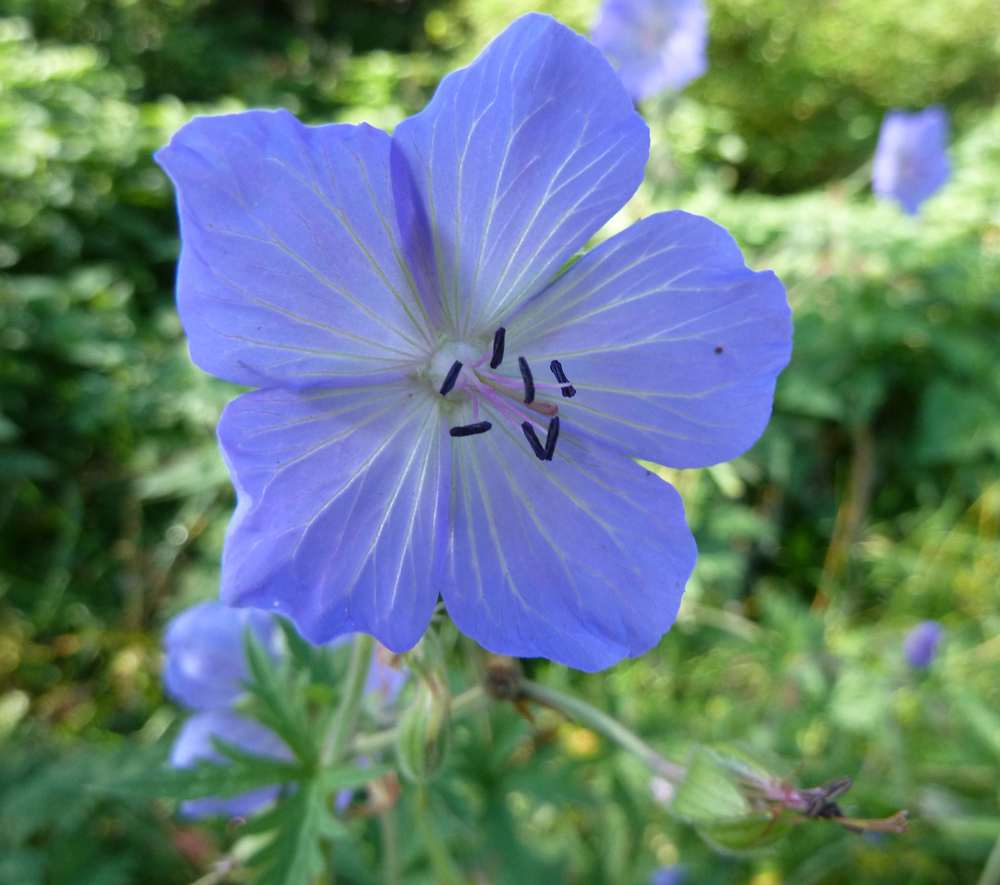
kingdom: Plantae
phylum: Tracheophyta
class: Magnoliopsida
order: Geraniales
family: Geraniaceae
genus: Geranium
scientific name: Geranium pratense
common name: Meadow crane's-bill
